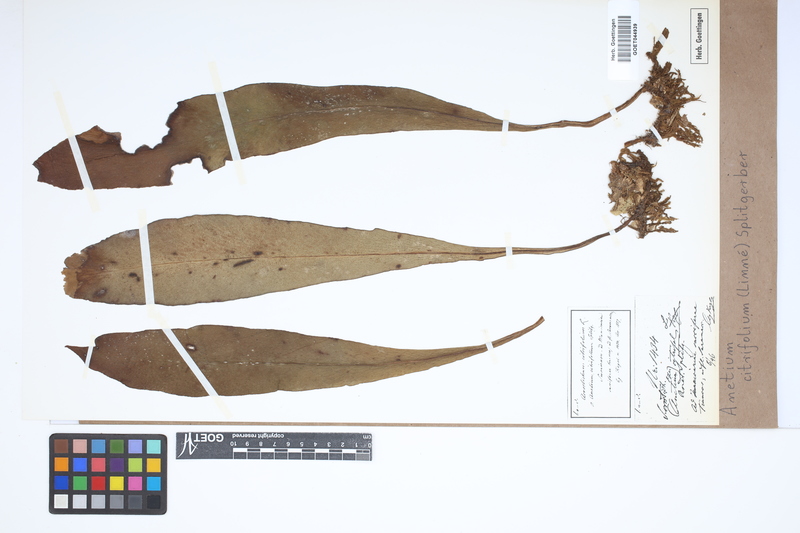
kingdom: Plantae
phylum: Tracheophyta
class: Polypodiopsida
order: Polypodiales
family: Pteridaceae
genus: Polytaenium
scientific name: Polytaenium citrifolium
